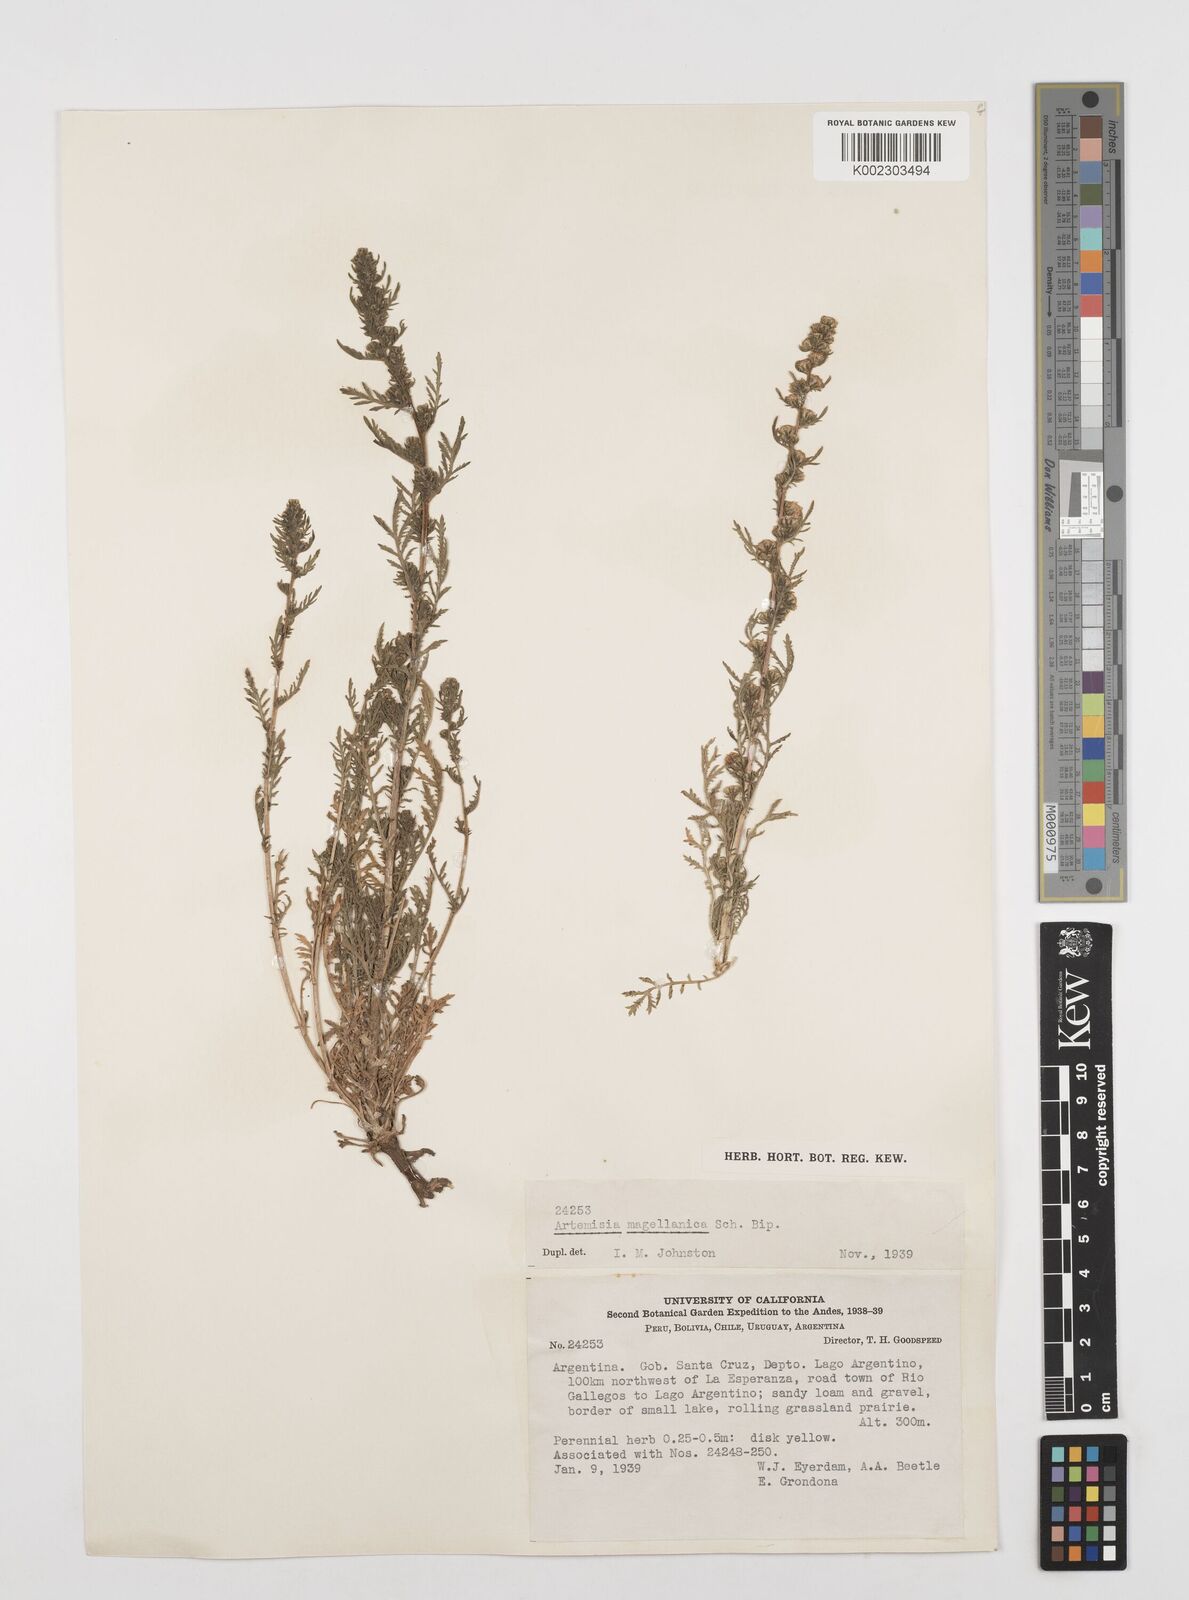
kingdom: Plantae
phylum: Tracheophyta
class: Magnoliopsida
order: Asterales
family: Asteraceae
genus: Artemisia
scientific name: Artemisia
